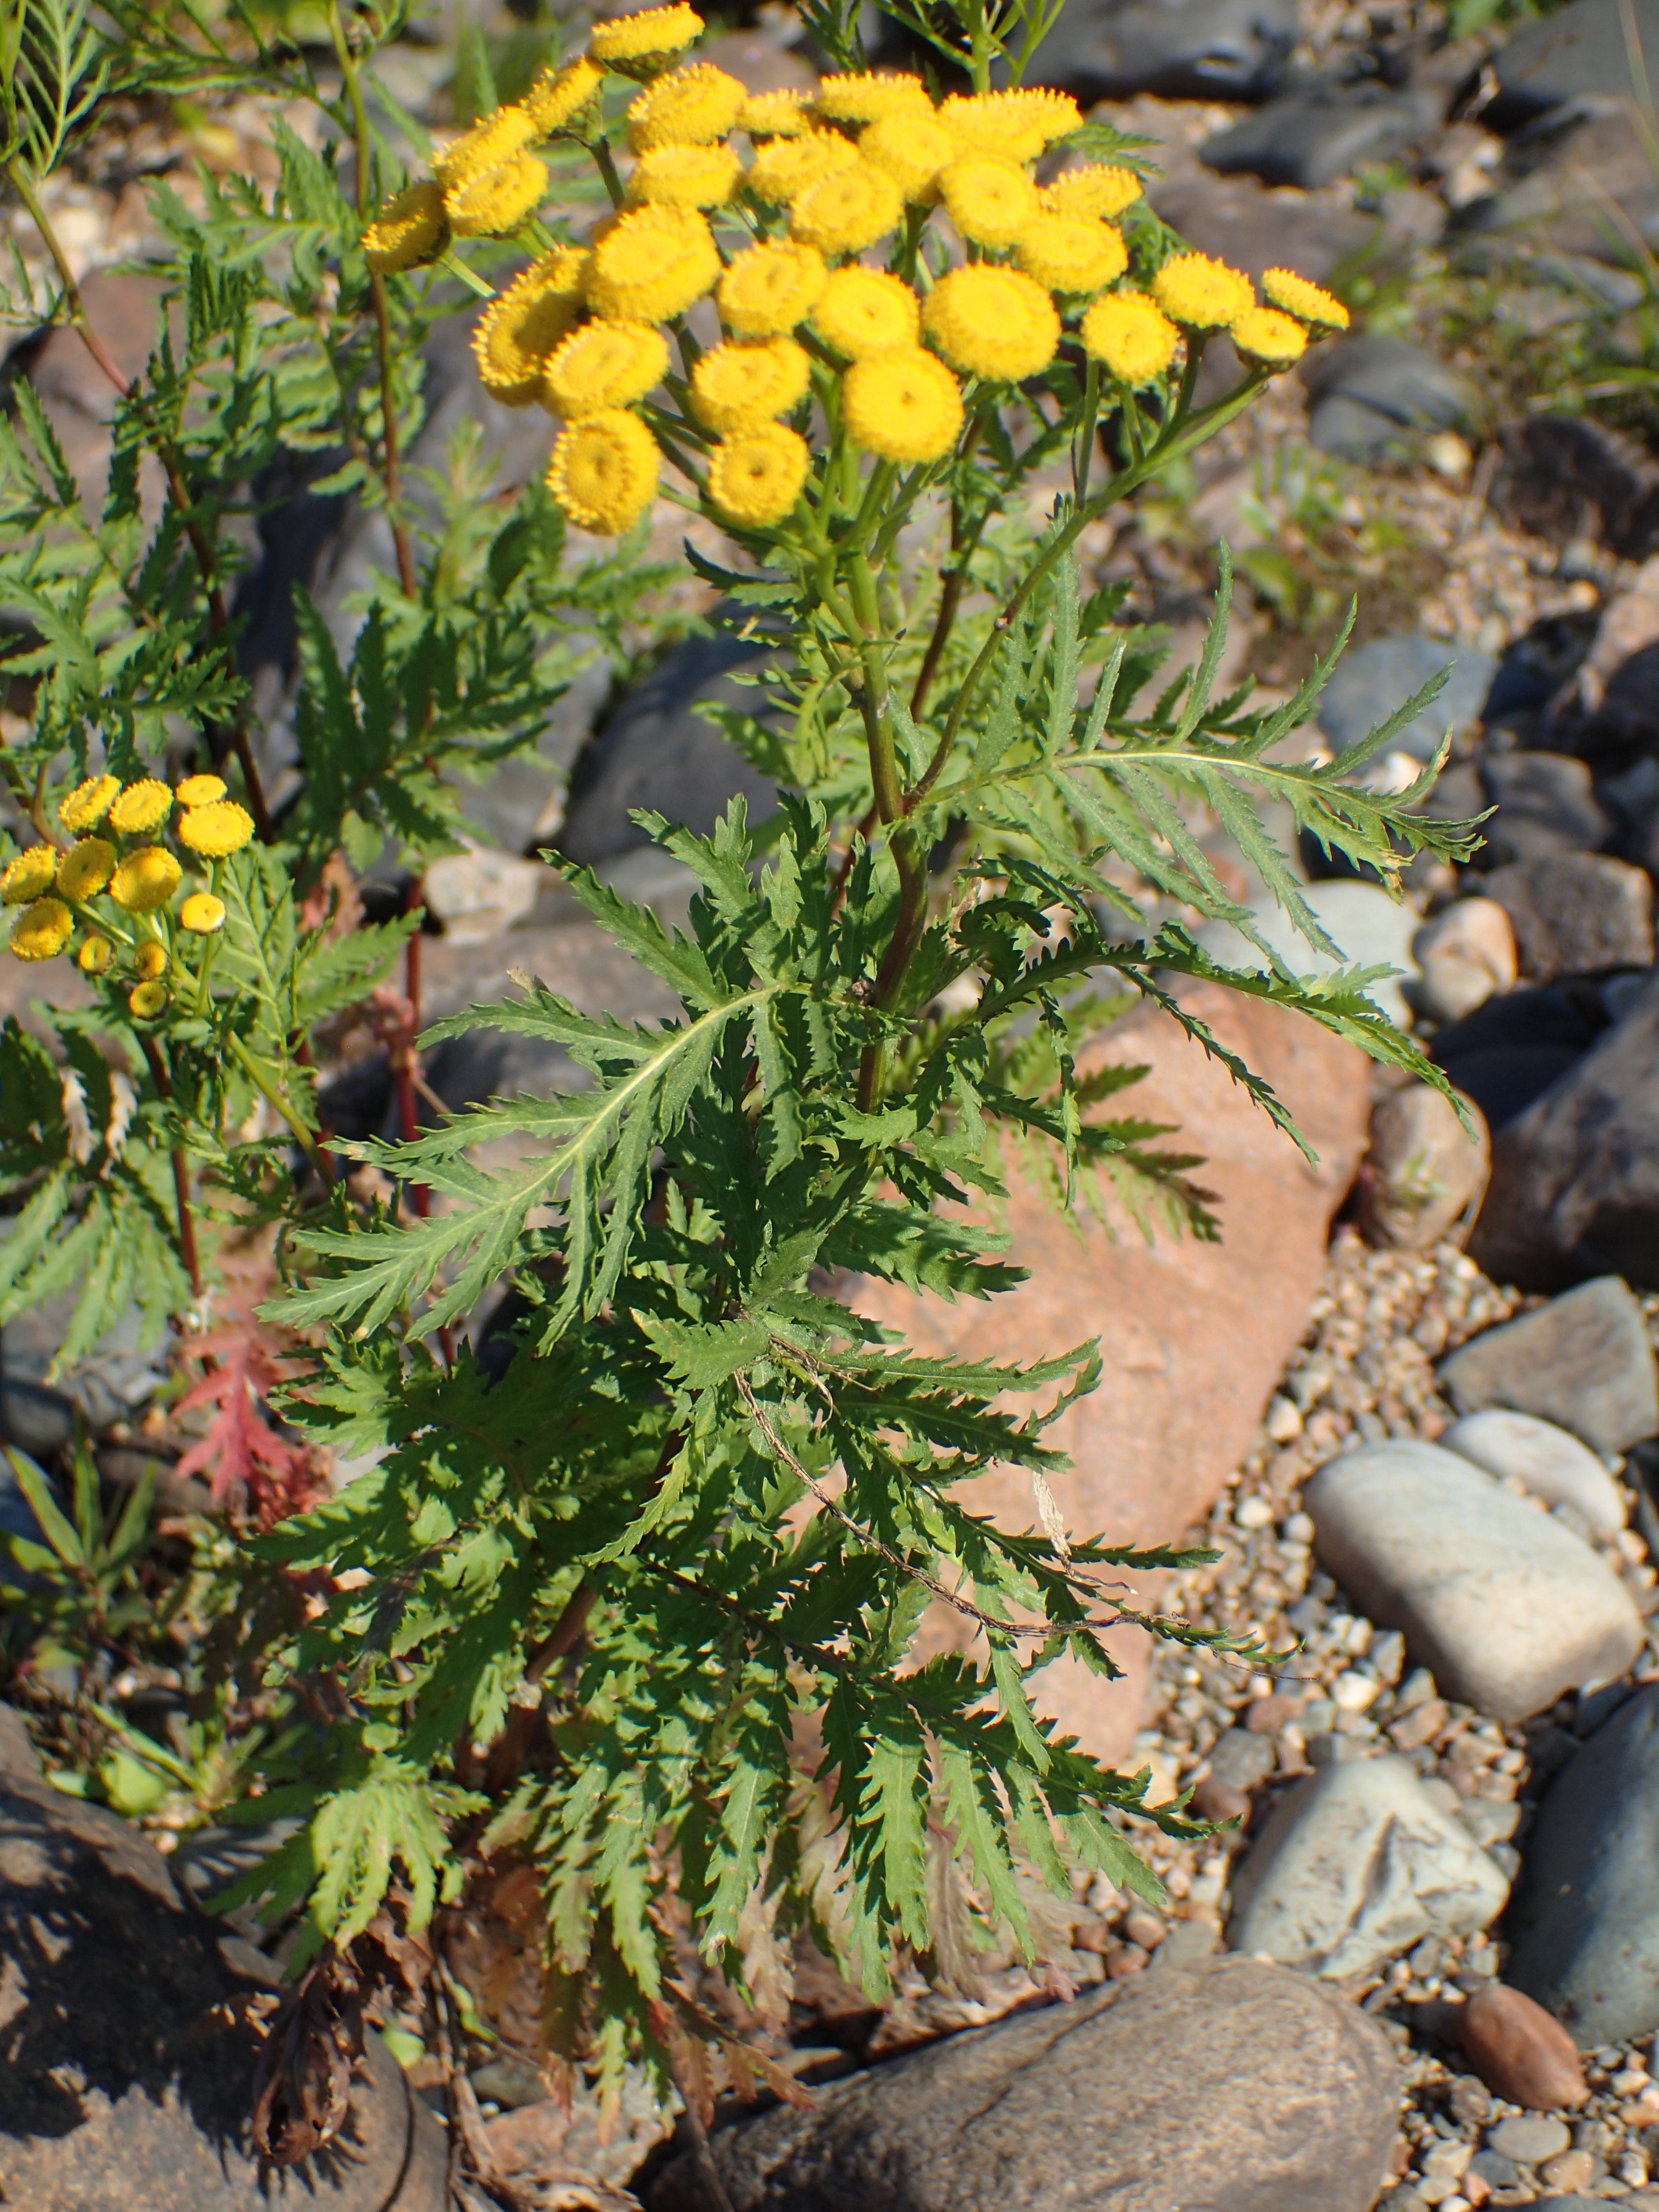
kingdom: Plantae
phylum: Tracheophyta
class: Magnoliopsida
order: Asterales
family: Asteraceae
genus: Tanacetum
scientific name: Tanacetum vulgare
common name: Common tansy
